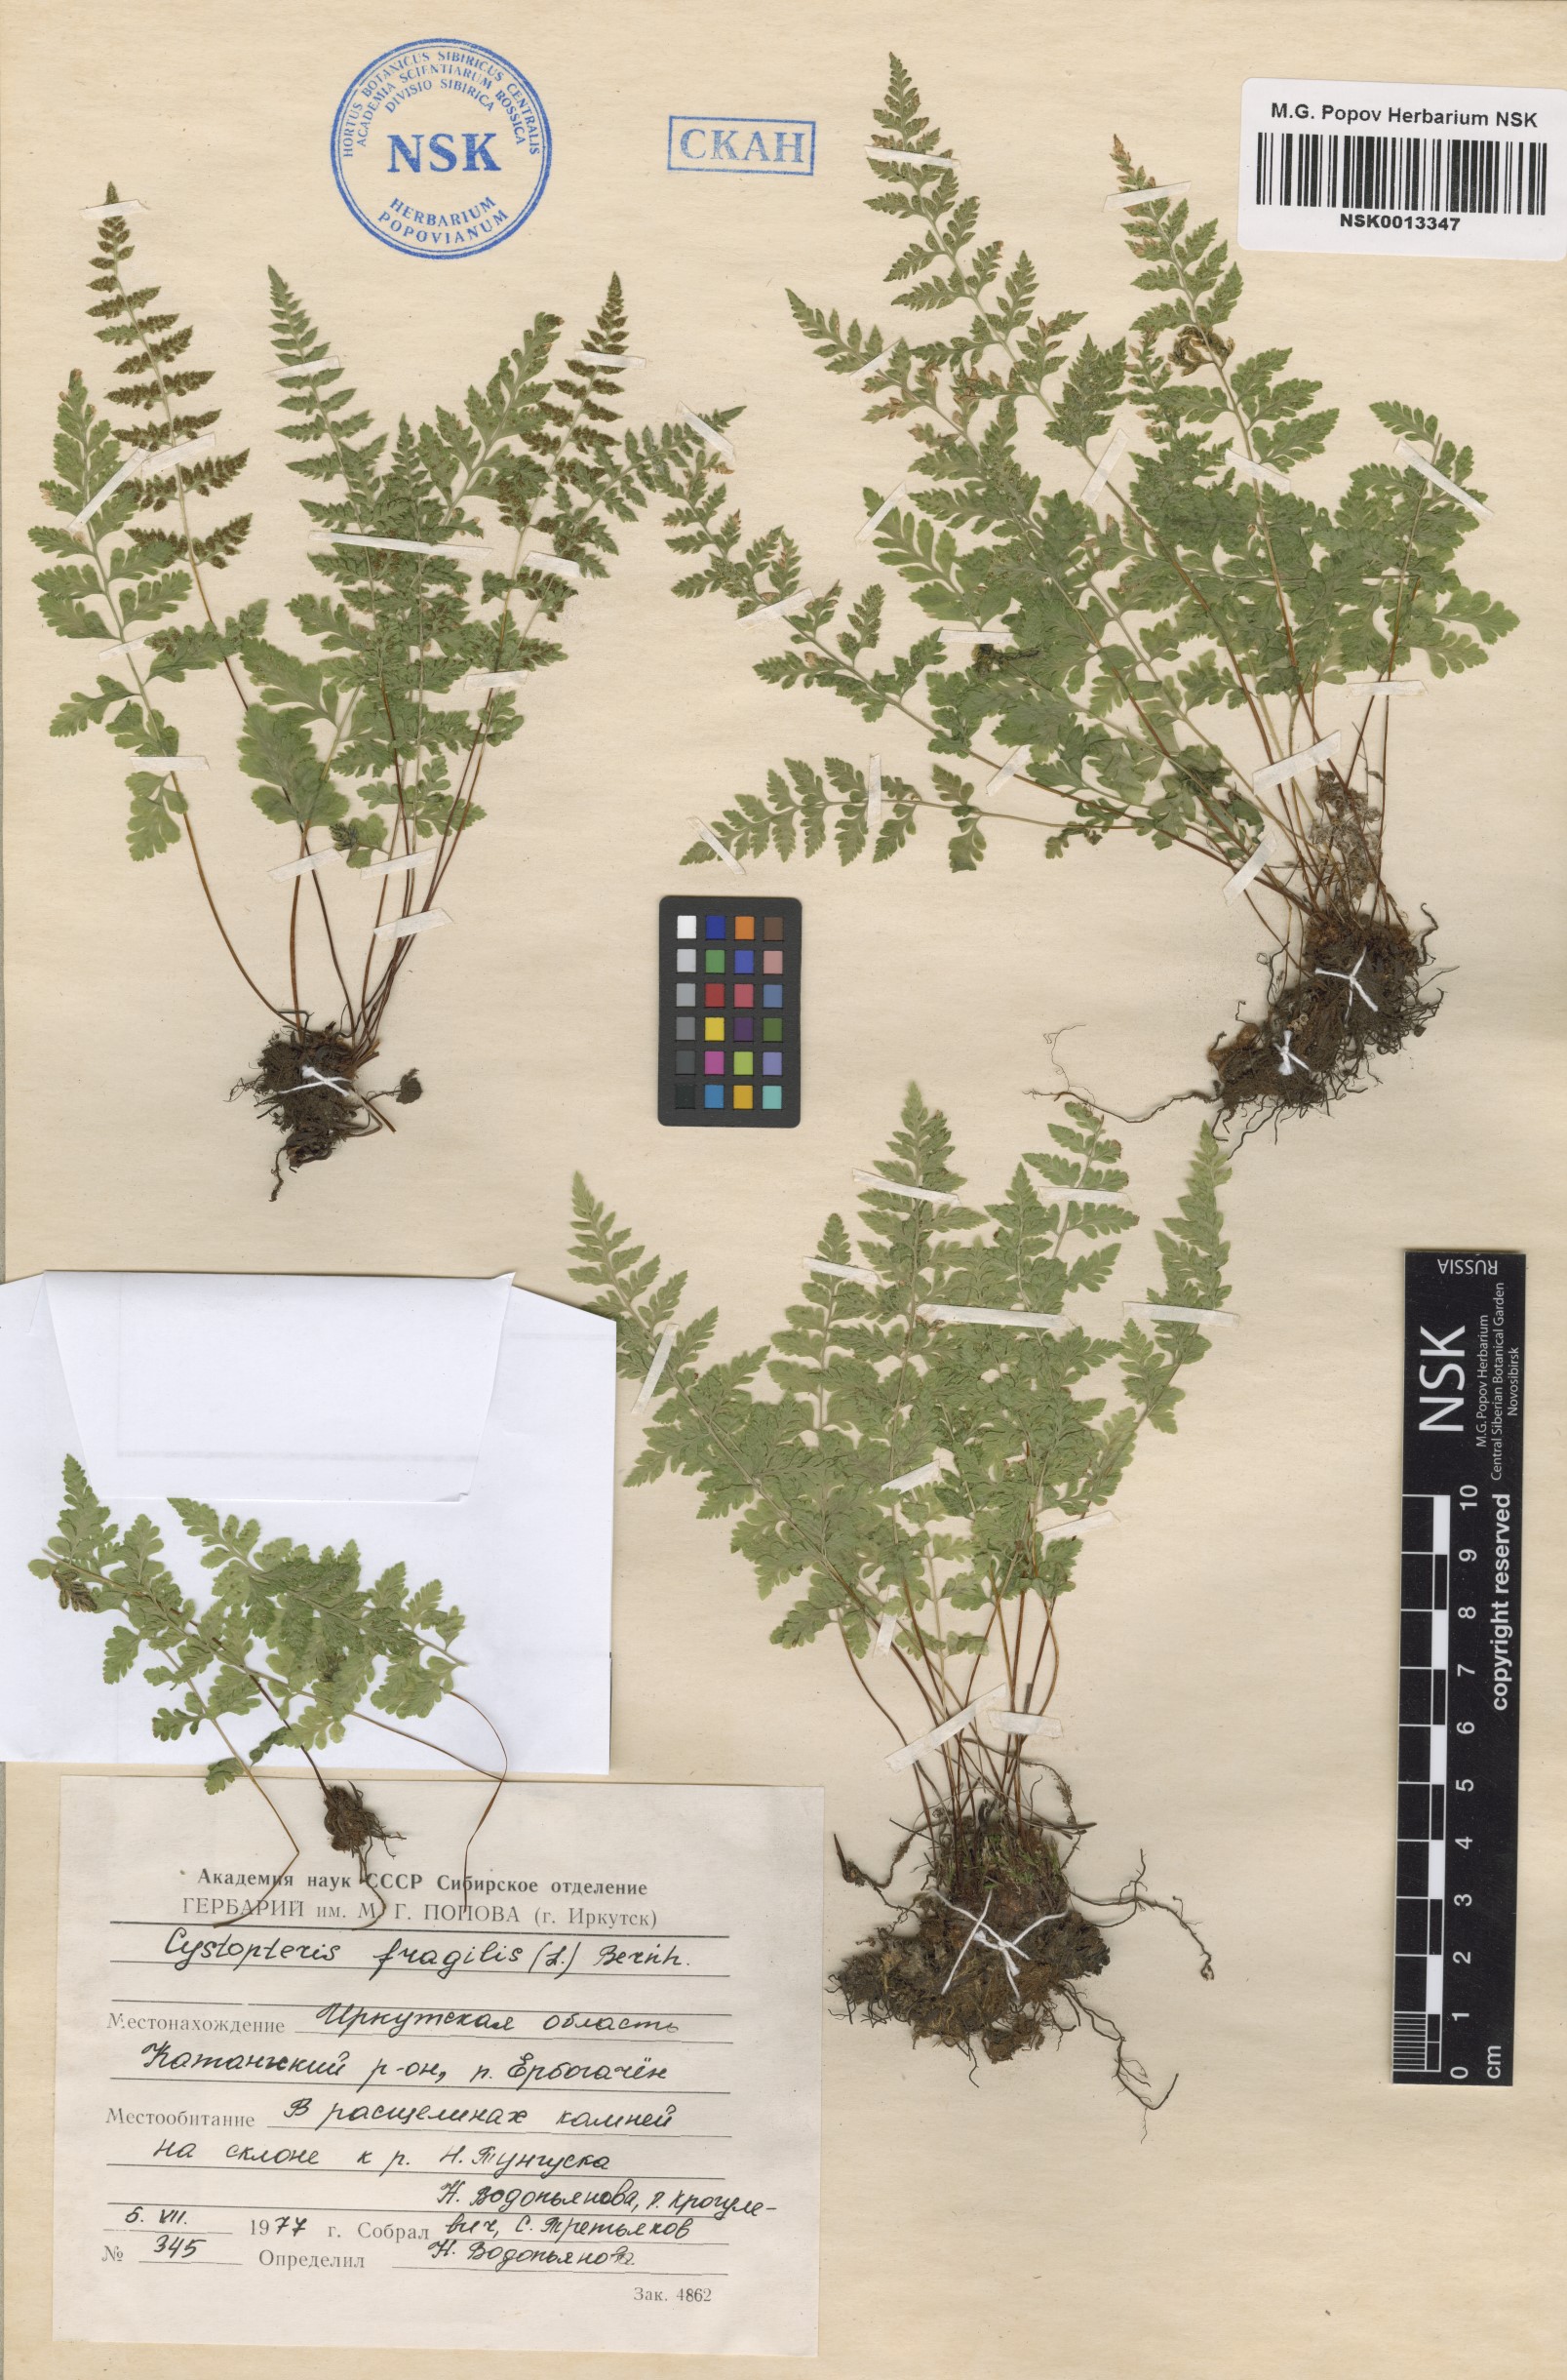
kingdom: Plantae
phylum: Tracheophyta
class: Polypodiopsida
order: Polypodiales
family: Cystopteridaceae
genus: Cystopteris
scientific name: Cystopteris fragilis
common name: Brittle bladder fern
